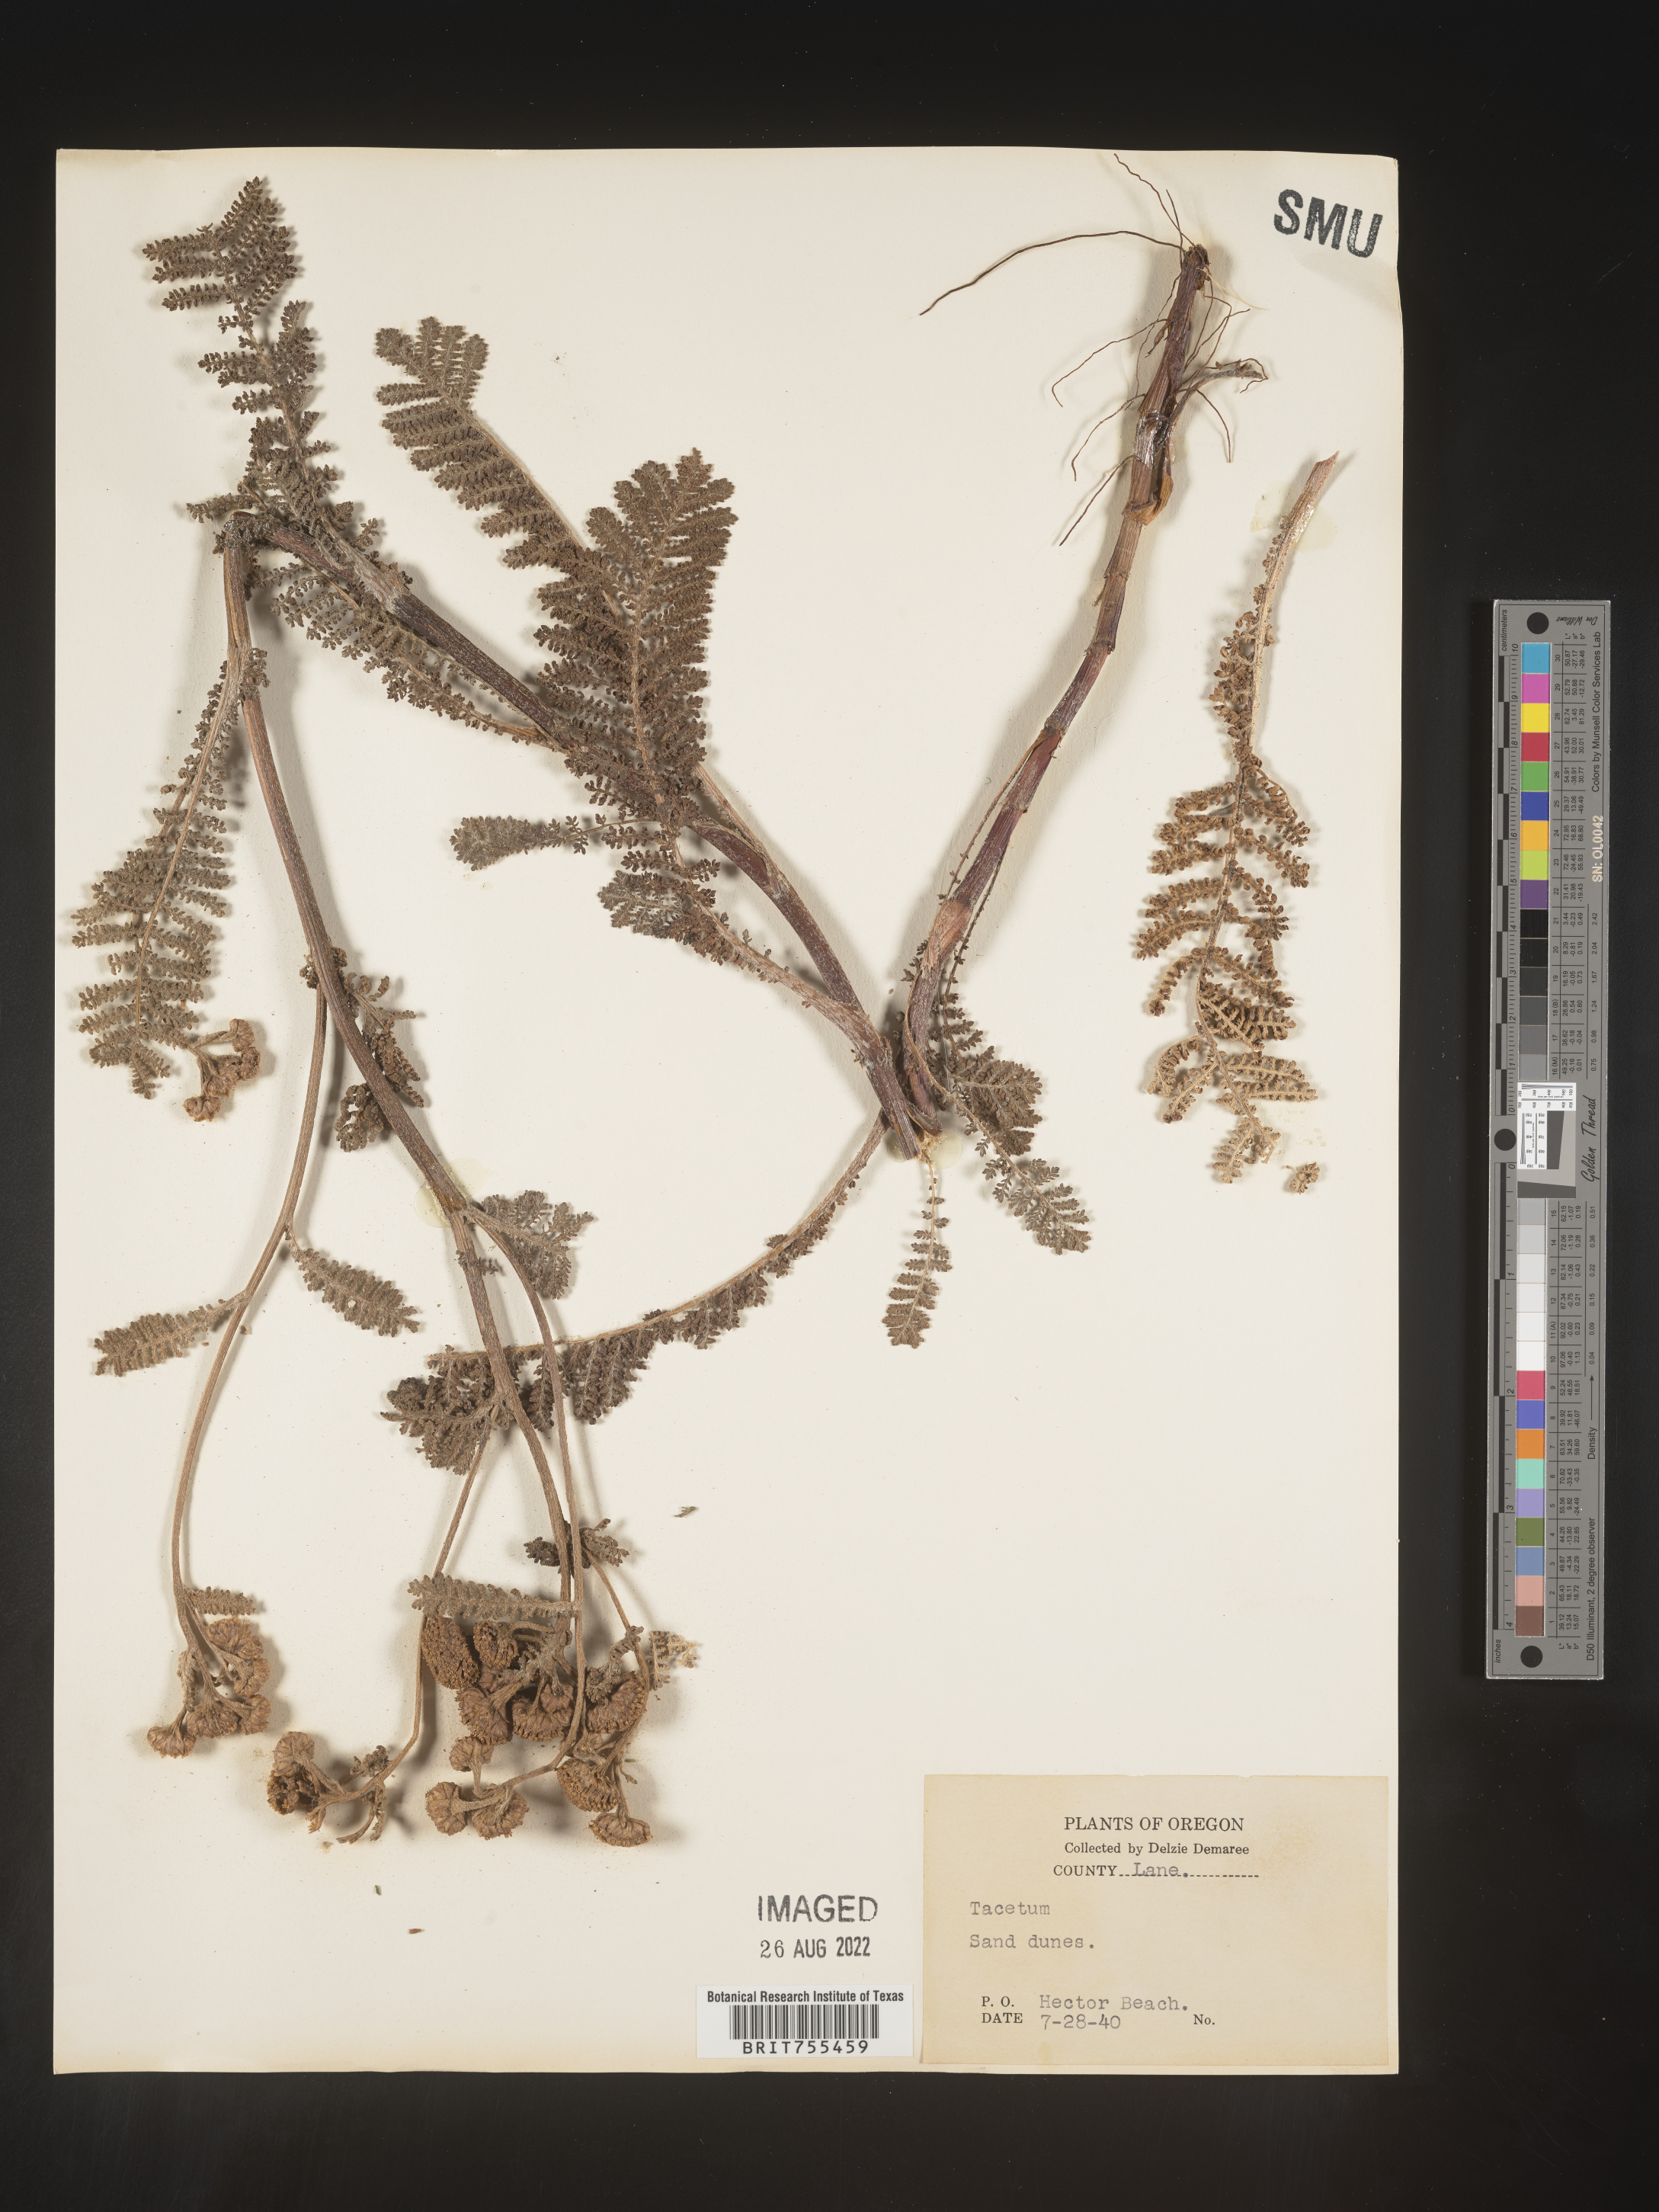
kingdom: Plantae
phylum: Tracheophyta
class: Magnoliopsida
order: Asterales
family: Asteraceae
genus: Tanacetum
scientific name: Tanacetum vulgare
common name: Common tansy
